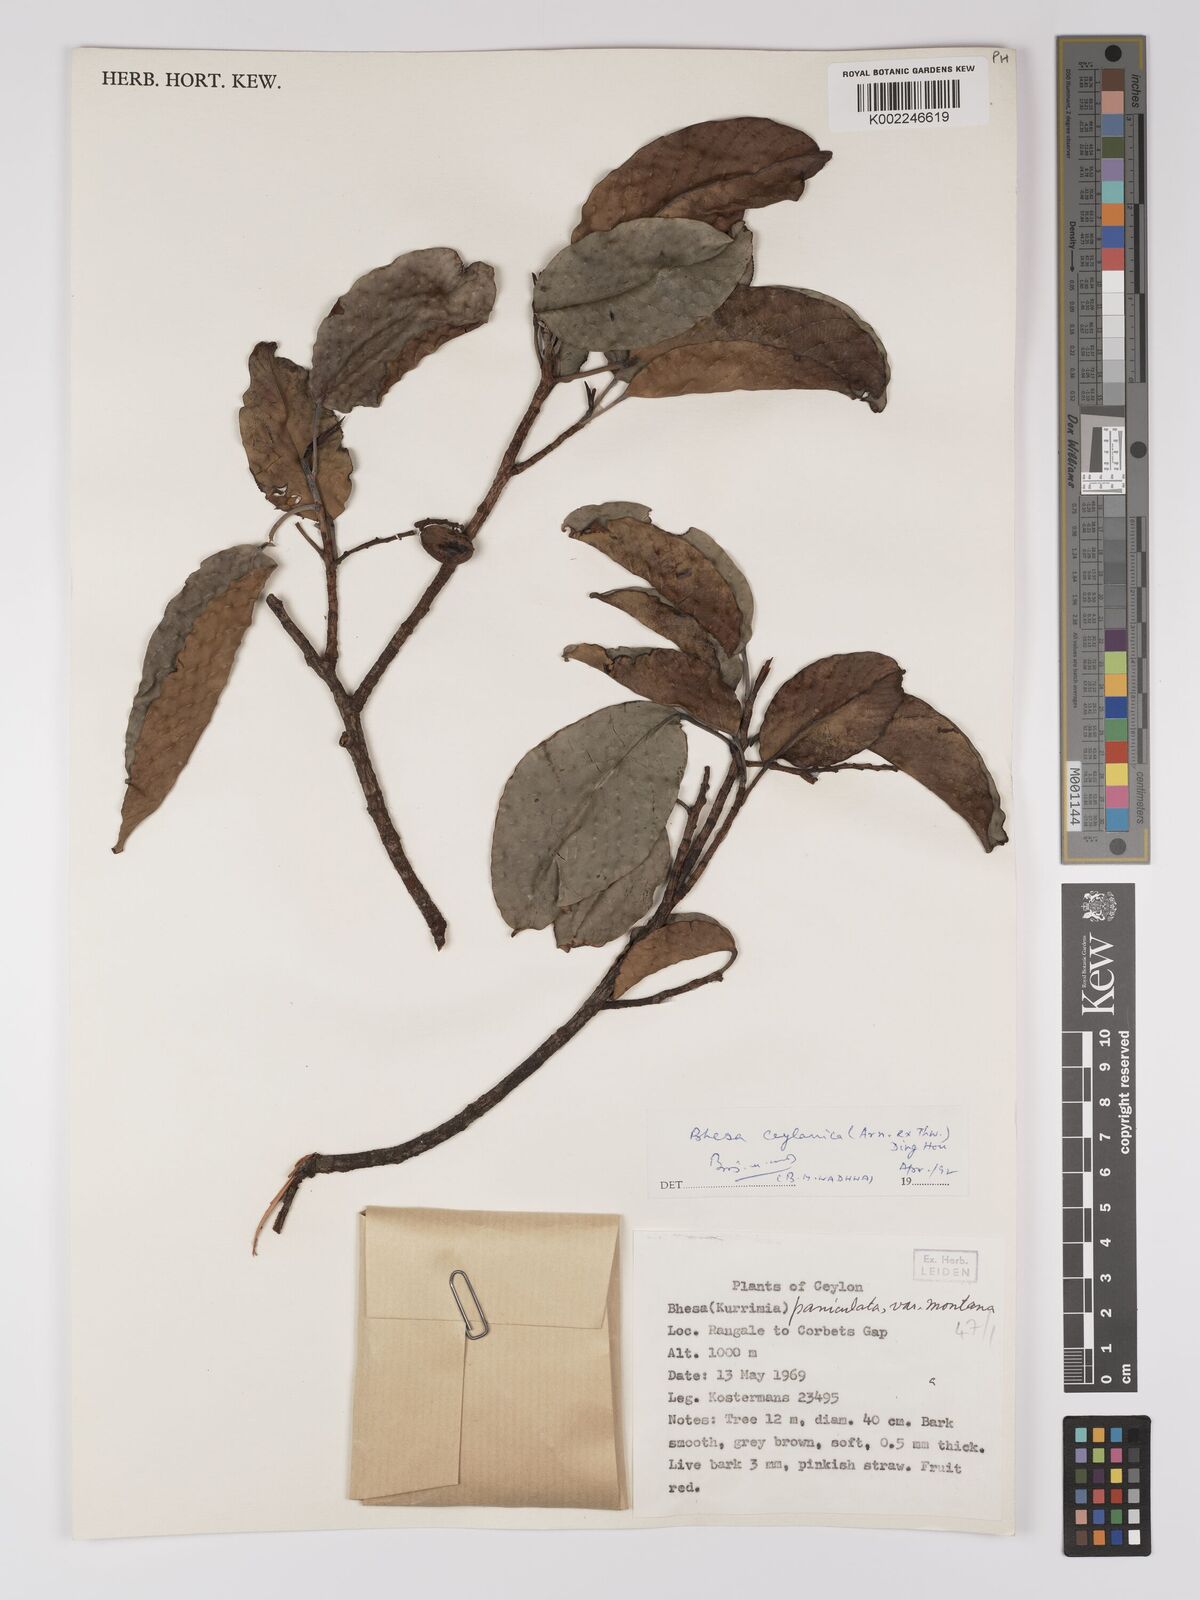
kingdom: Plantae
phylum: Tracheophyta
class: Magnoliopsida
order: Malpighiales
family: Centroplacaceae
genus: Bhesa
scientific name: Bhesa paniculata
